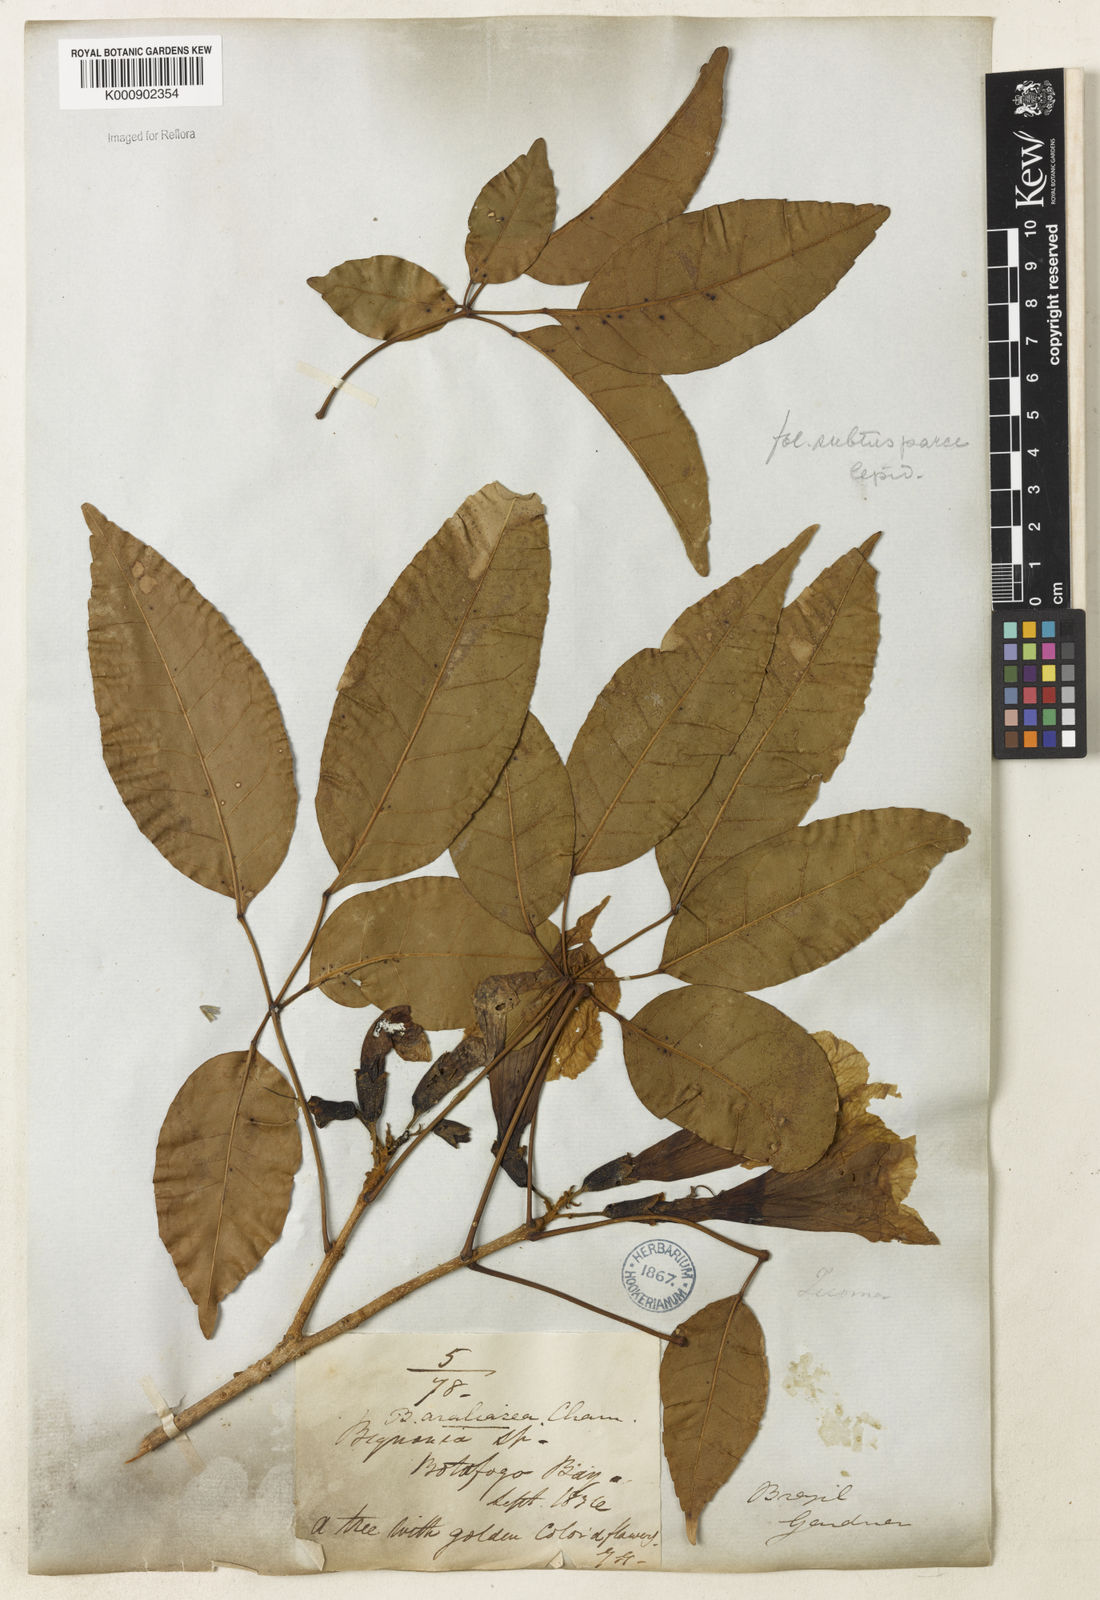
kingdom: Plantae
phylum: Tracheophyta
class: Magnoliopsida
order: Lamiales
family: Bignoniaceae
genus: Handroanthus
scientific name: Handroanthus serratifolius
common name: Yellow ipe
